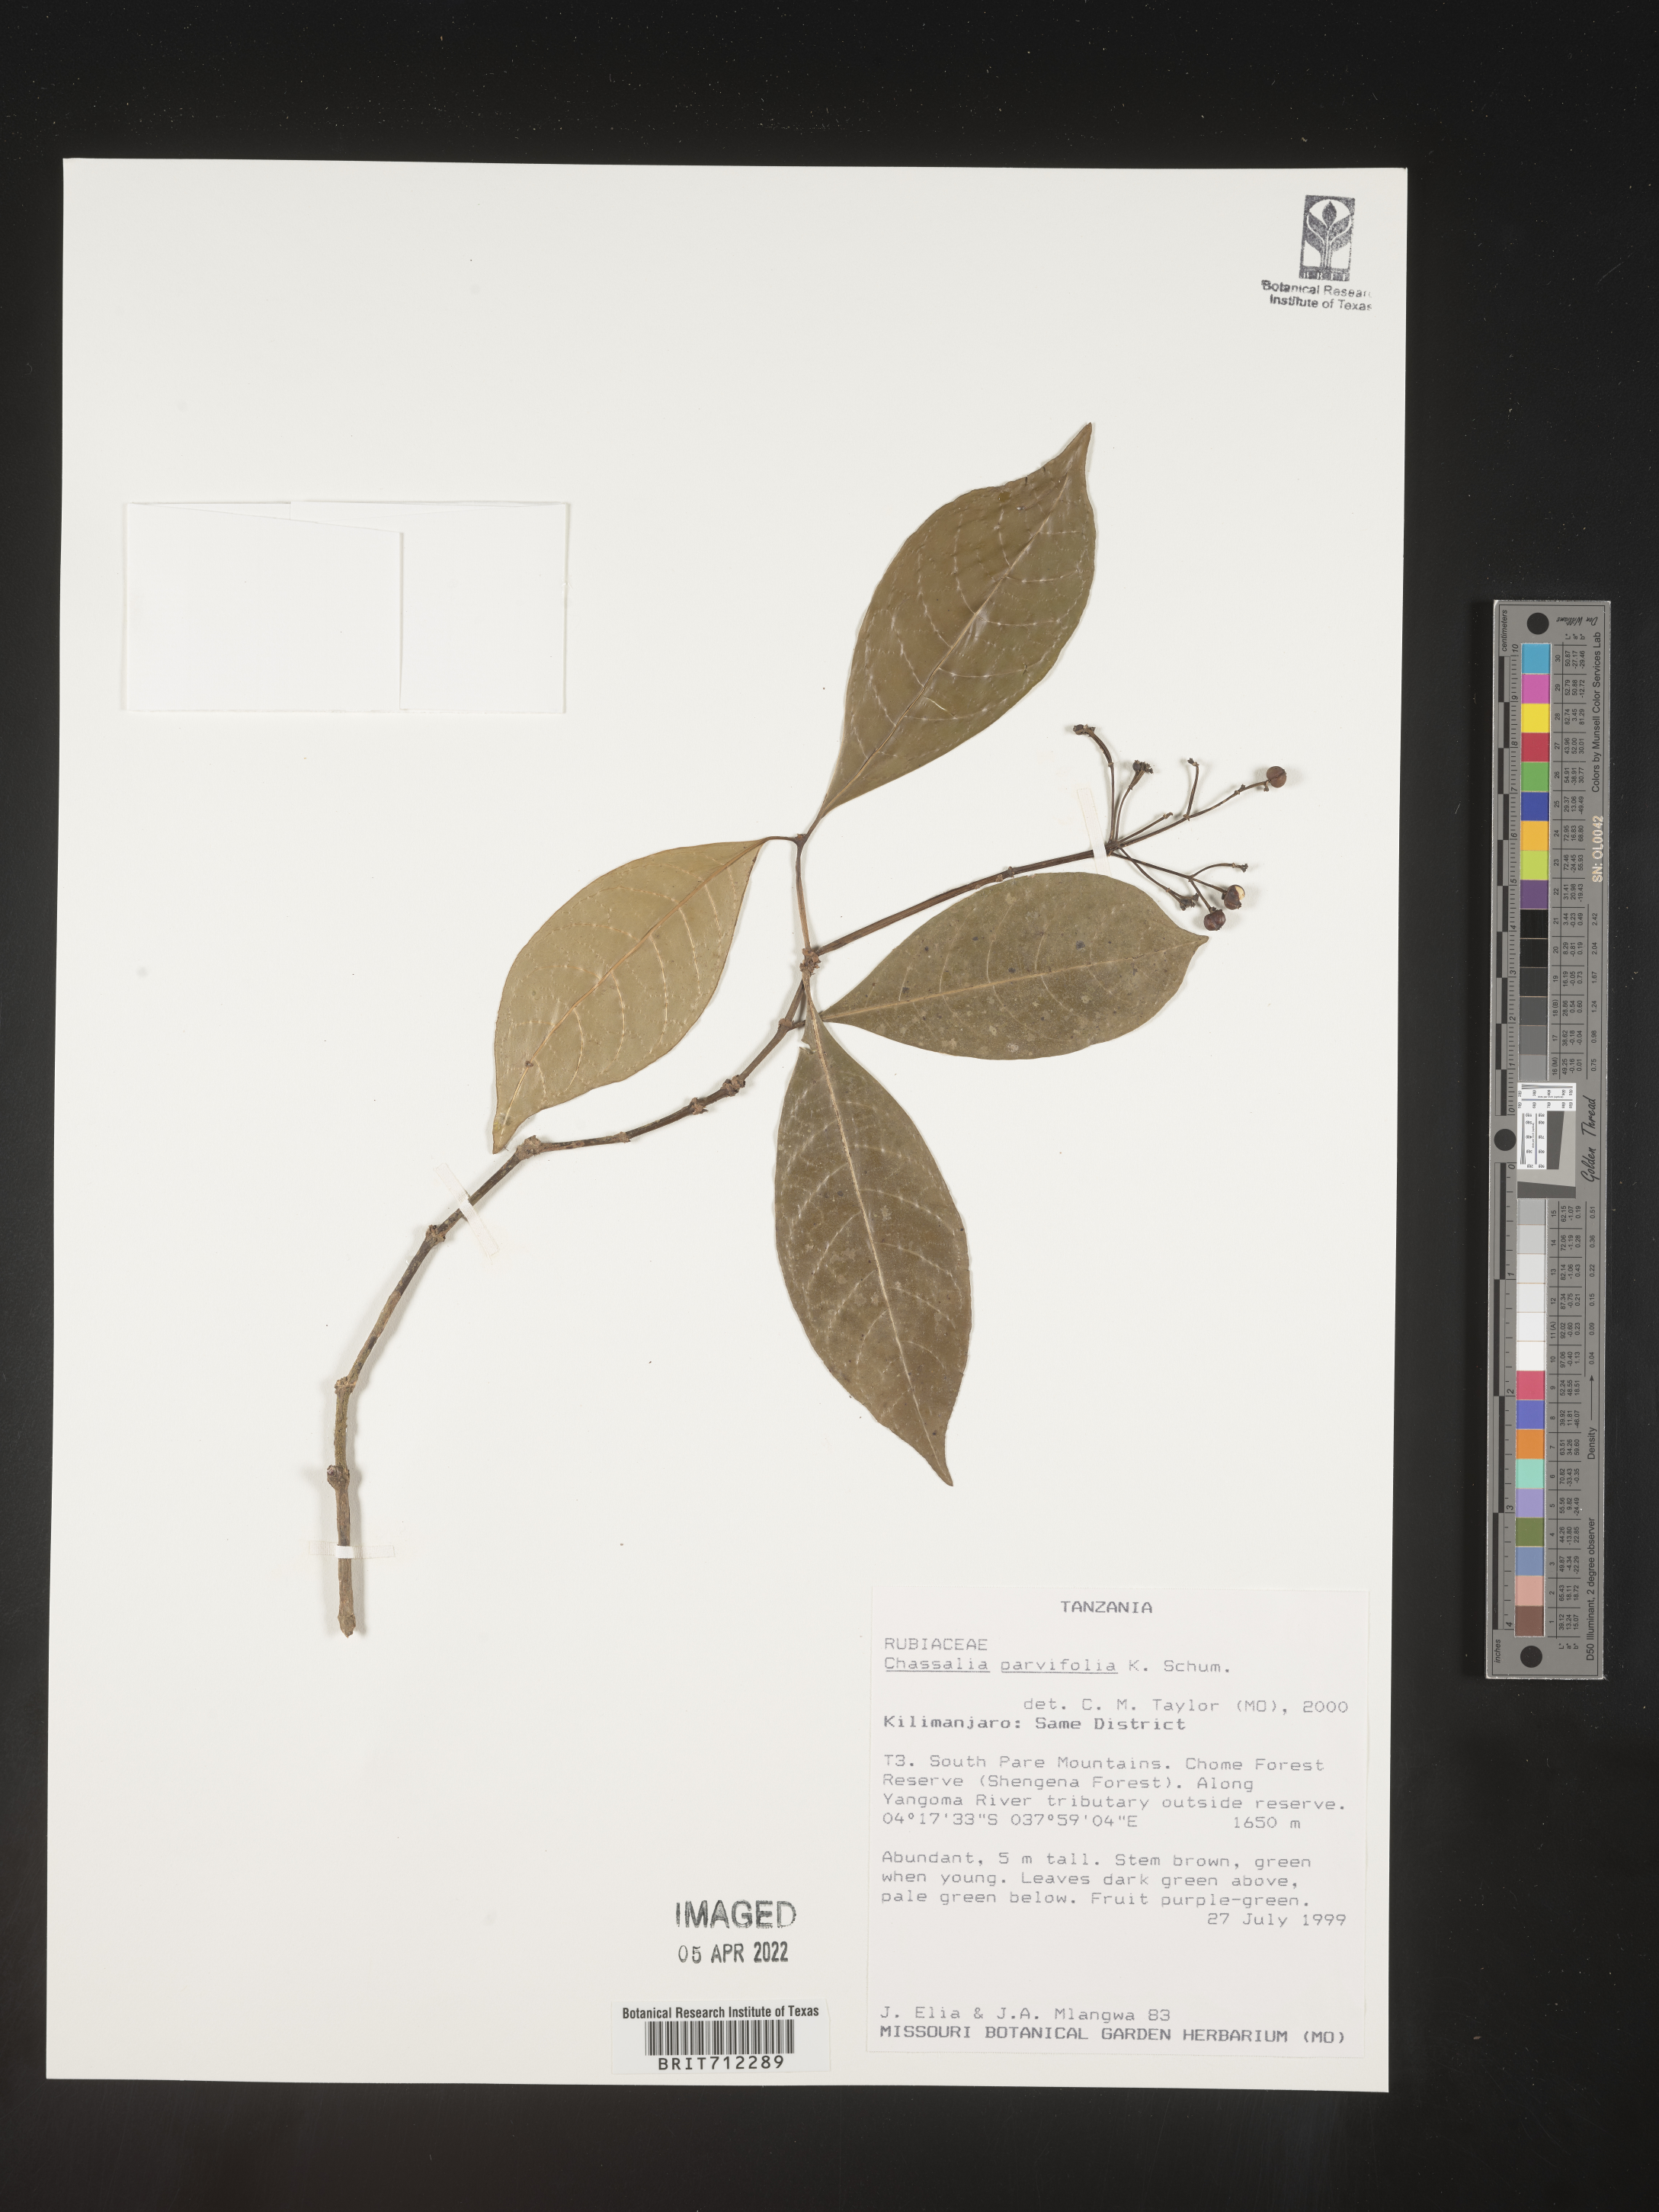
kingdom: Plantae
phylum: Tracheophyta
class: Magnoliopsida
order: Gentianales
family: Rubiaceae
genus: Chassalia
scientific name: Chassalia
